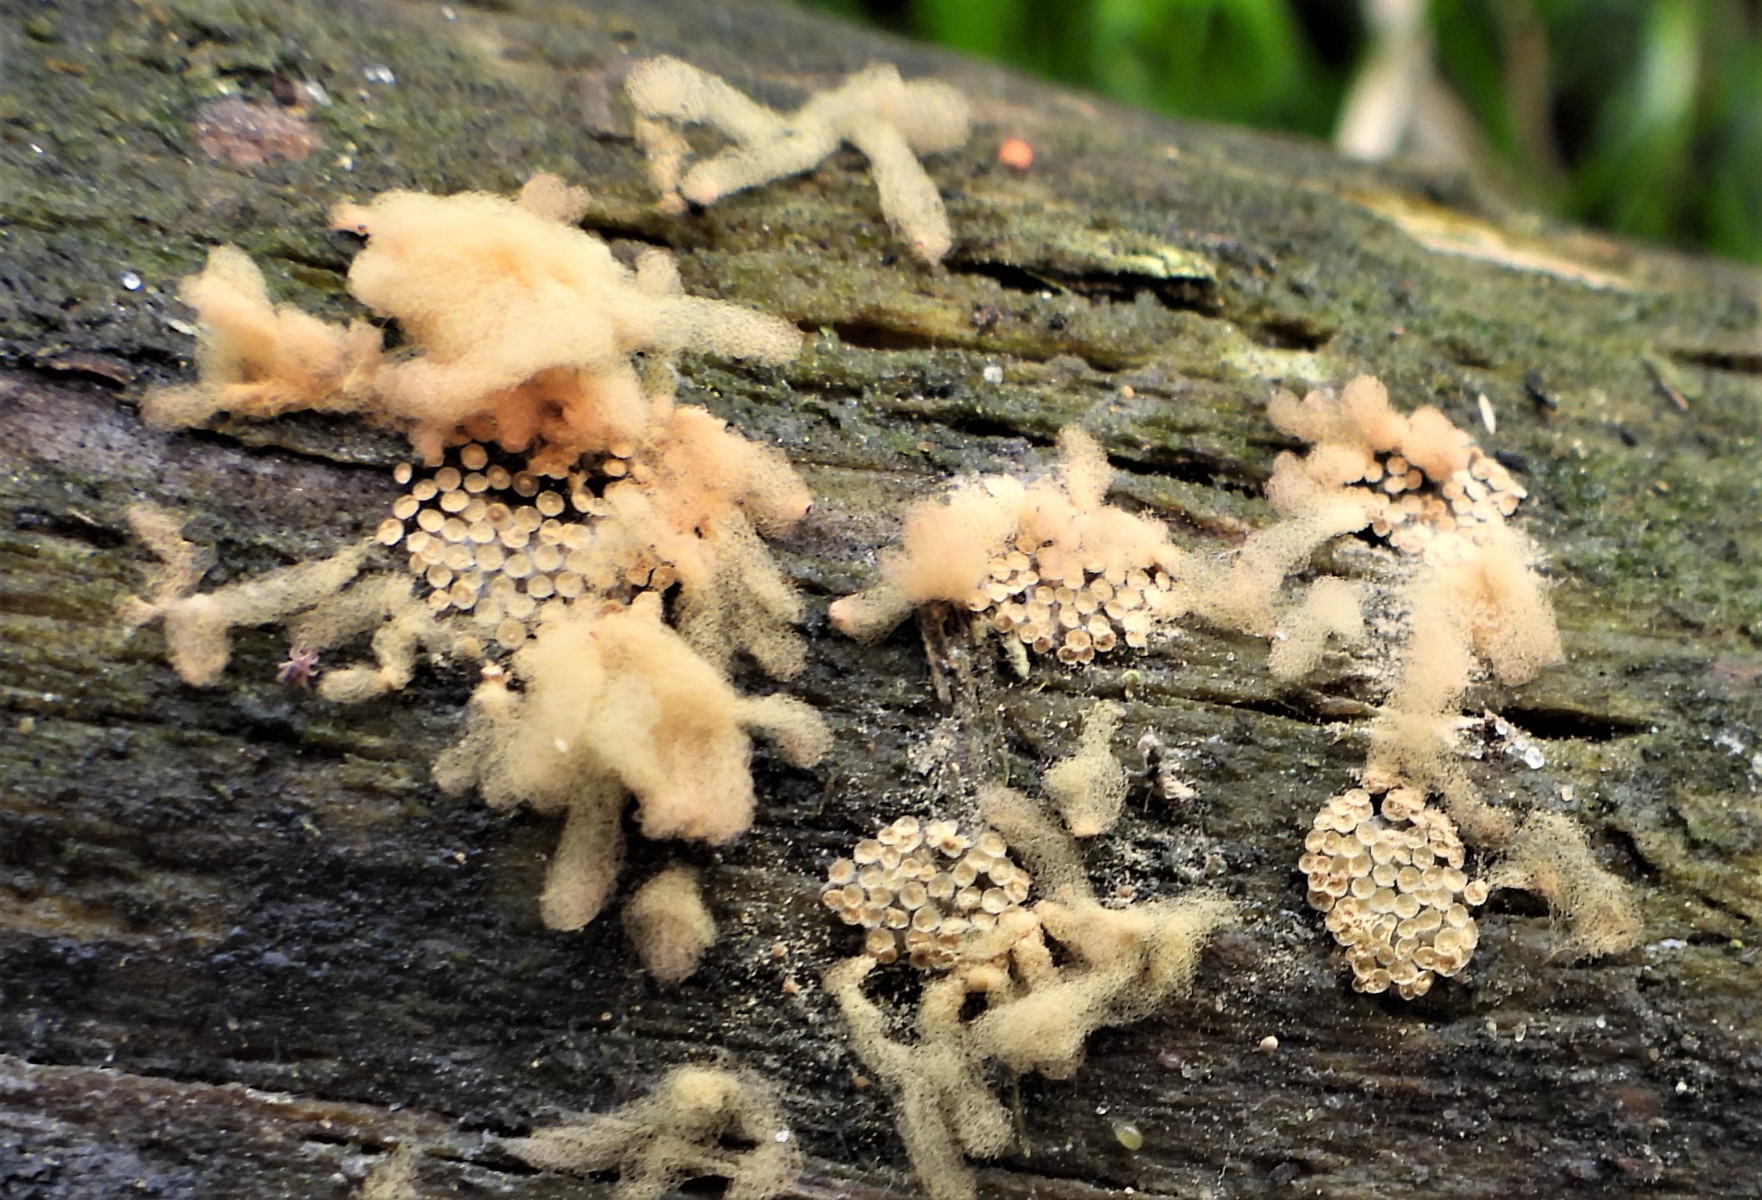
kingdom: Protozoa
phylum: Mycetozoa
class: Myxomycetes
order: Trichiales
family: Arcyriaceae
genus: Arcyria
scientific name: Arcyria obvelata
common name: okkergul skålsvøb
